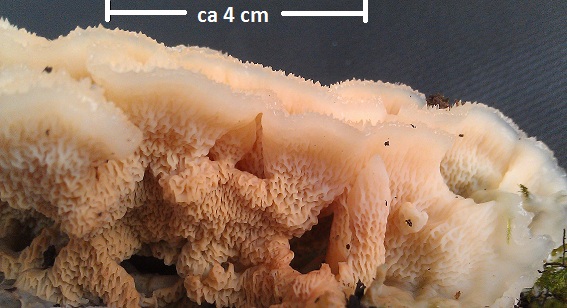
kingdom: Fungi
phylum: Basidiomycota
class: Agaricomycetes
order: Polyporales
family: Meruliaceae
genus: Phlebia
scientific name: Phlebia tremellosa
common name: bævrende åresvamp
